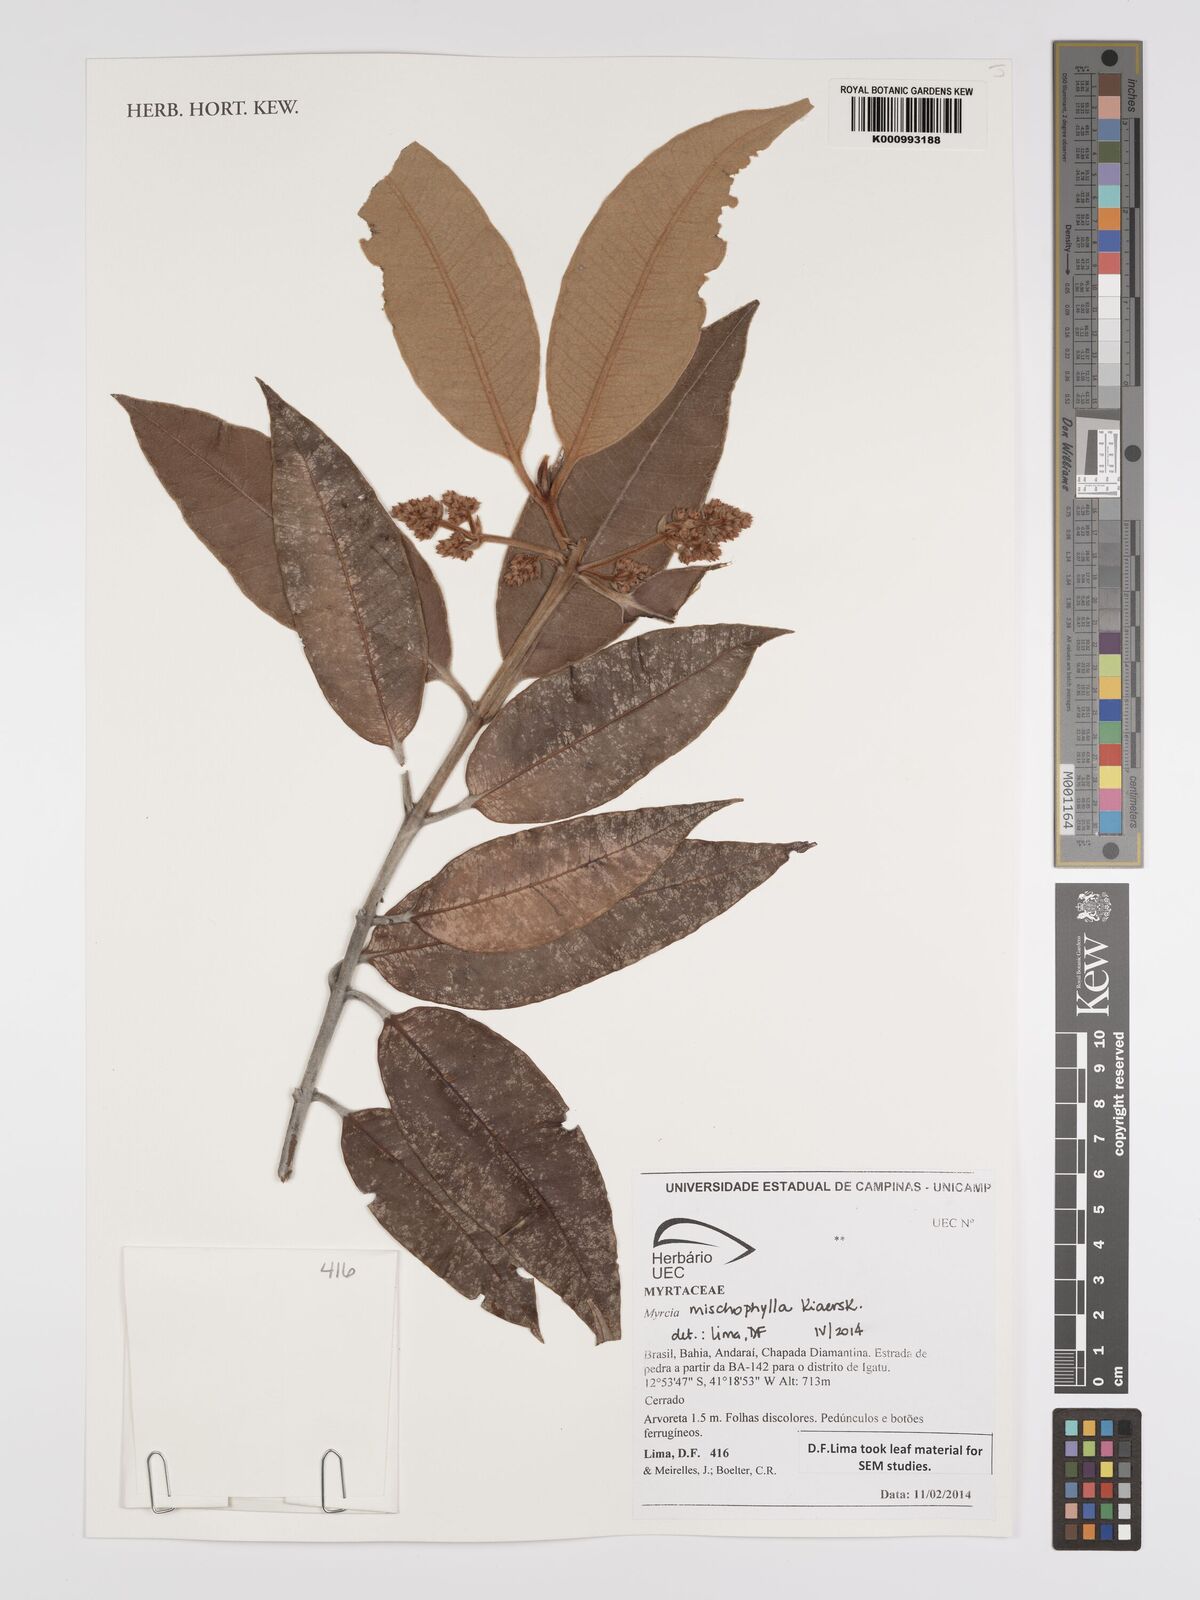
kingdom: Plantae
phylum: Tracheophyta
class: Magnoliopsida
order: Myrtales
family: Myrtaceae
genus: Myrcia
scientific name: Myrcia mischophylla
